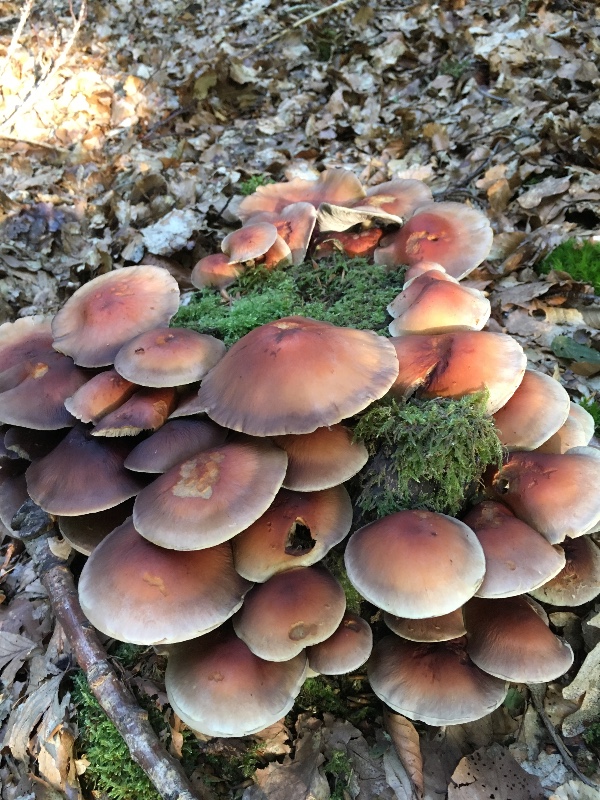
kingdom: Fungi
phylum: Basidiomycota
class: Agaricomycetes
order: Agaricales
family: Strophariaceae
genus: Hypholoma
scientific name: Hypholoma lateritium
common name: teglrød svovlhat
